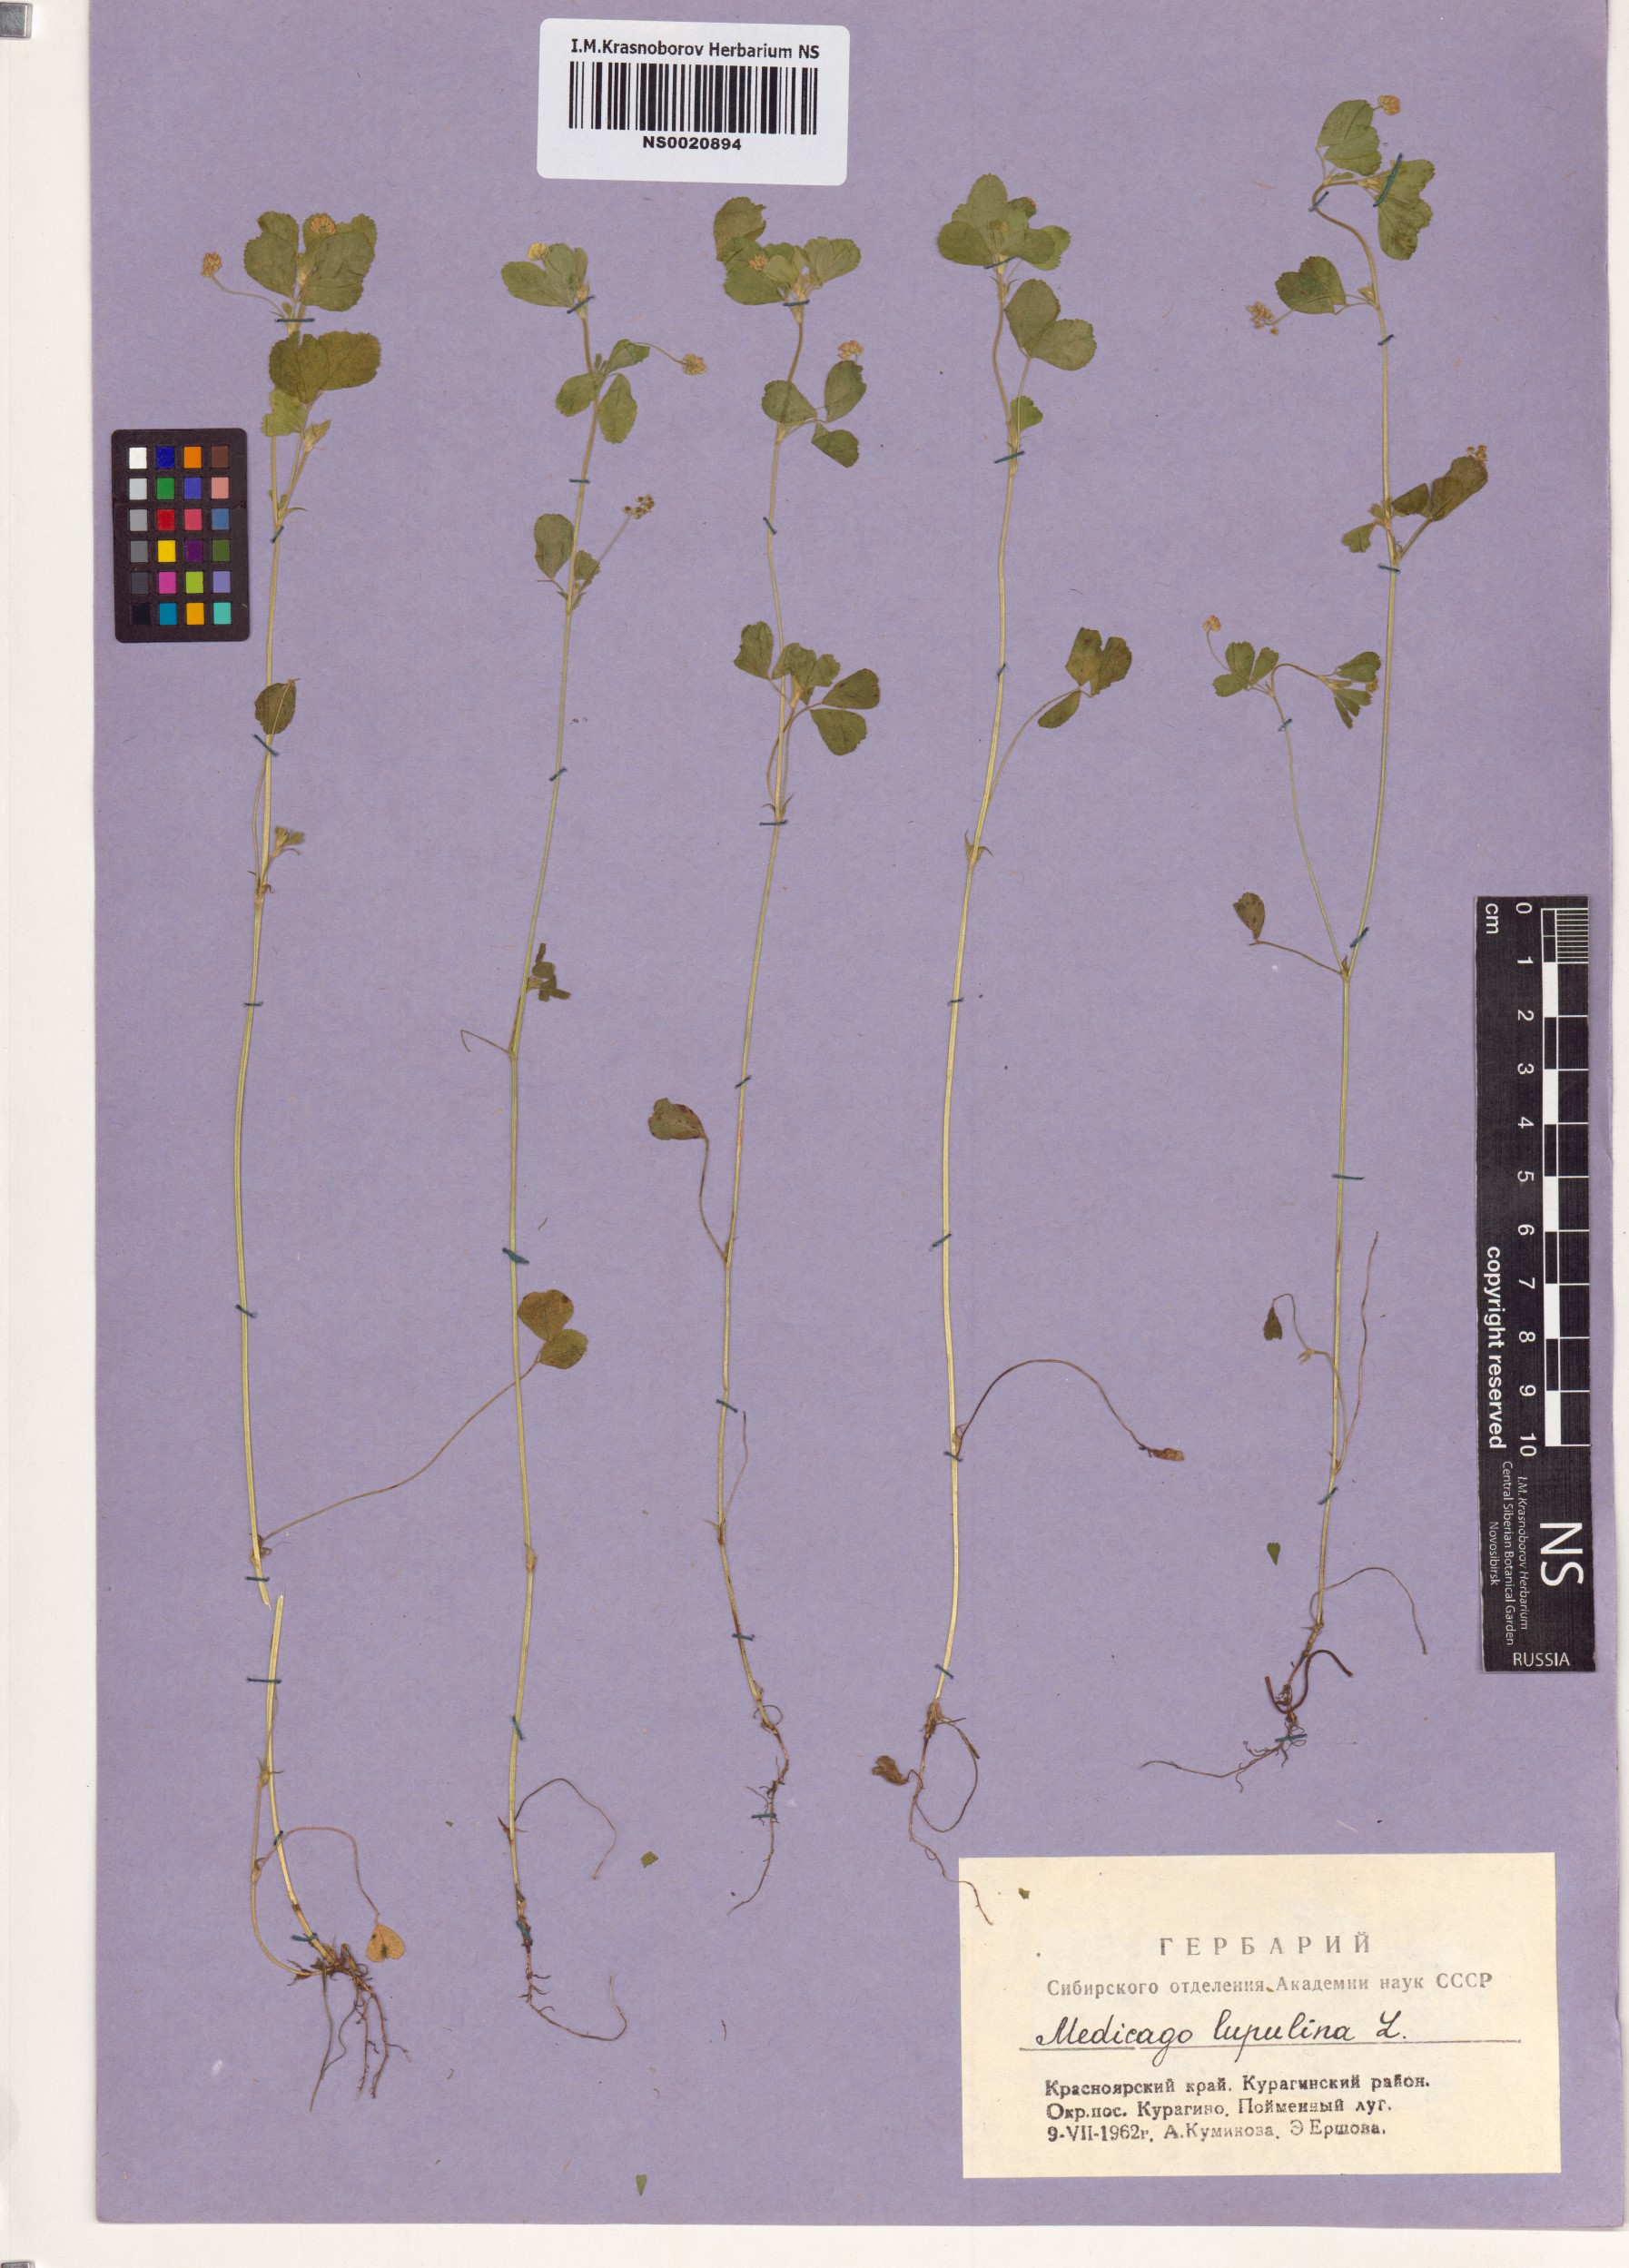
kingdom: Plantae
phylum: Tracheophyta
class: Magnoliopsida
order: Fabales
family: Fabaceae
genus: Medicago
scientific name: Medicago lupulina
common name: Black medick
